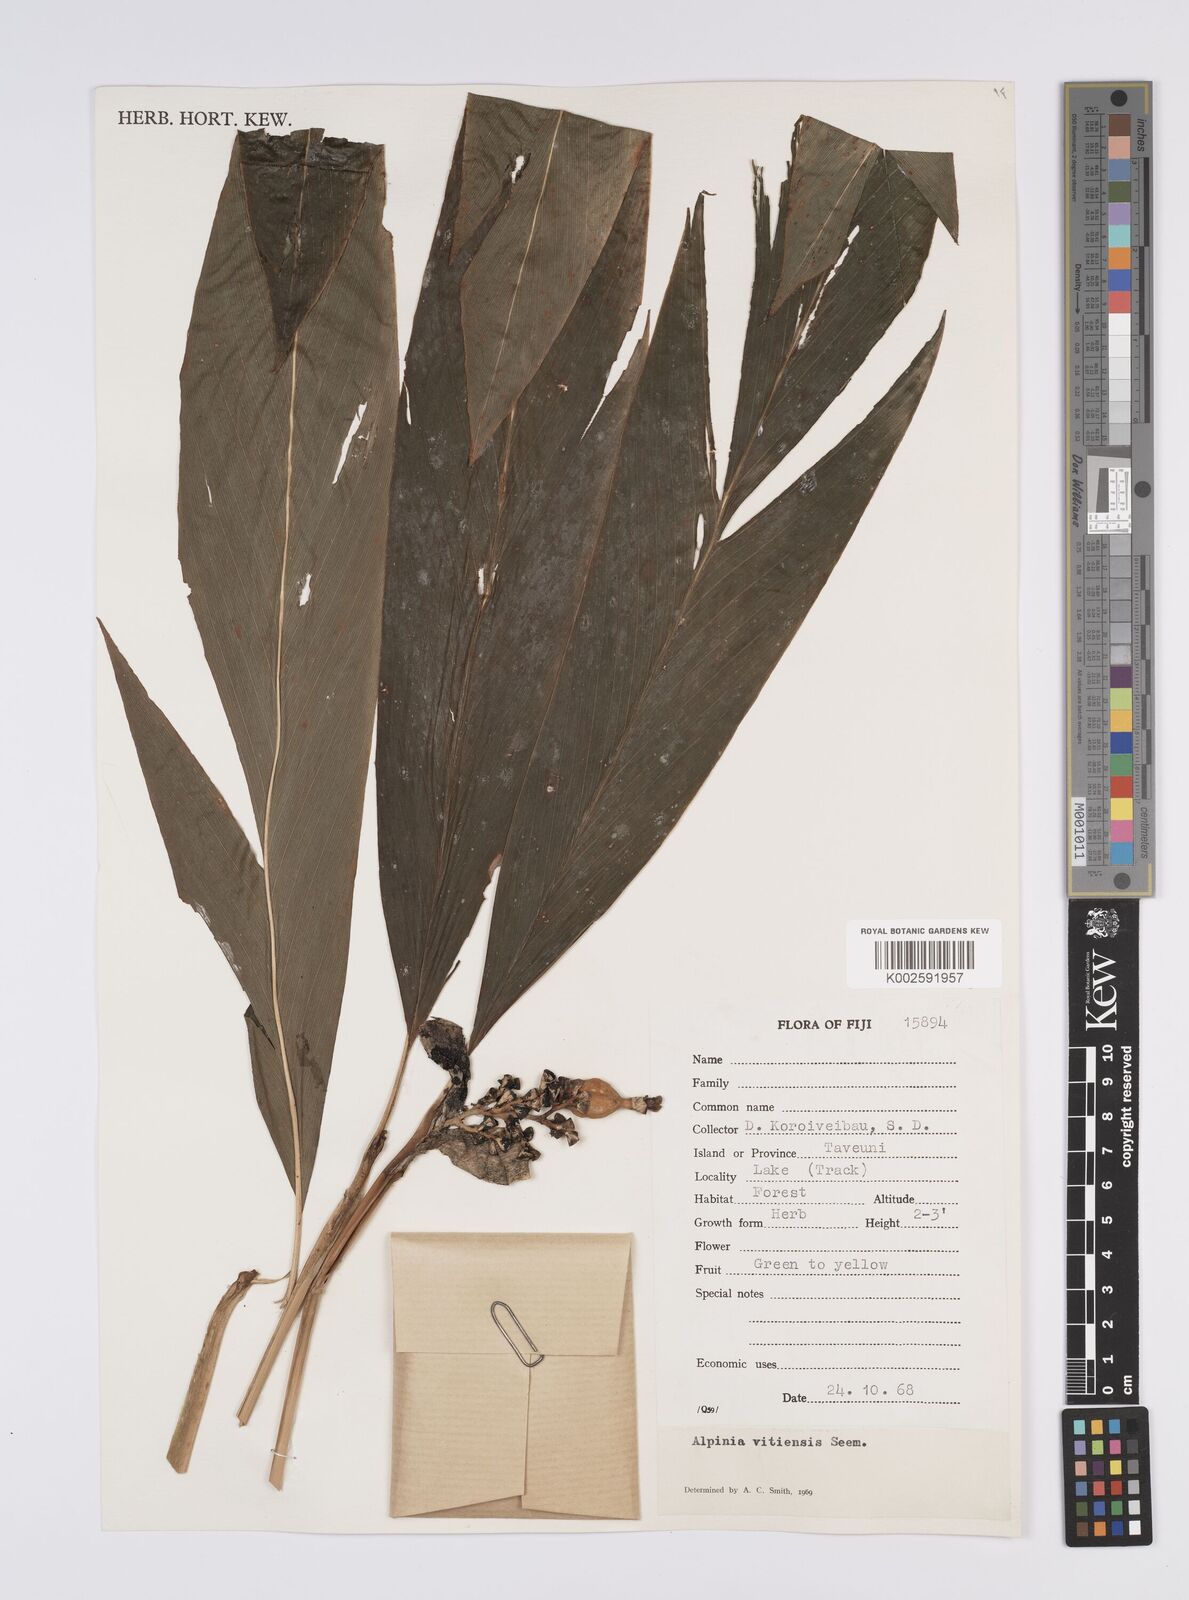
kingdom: Plantae
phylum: Tracheophyta
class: Liliopsida
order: Zingiberales
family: Zingiberaceae
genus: Alpinia
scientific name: Alpinia vitiensis
